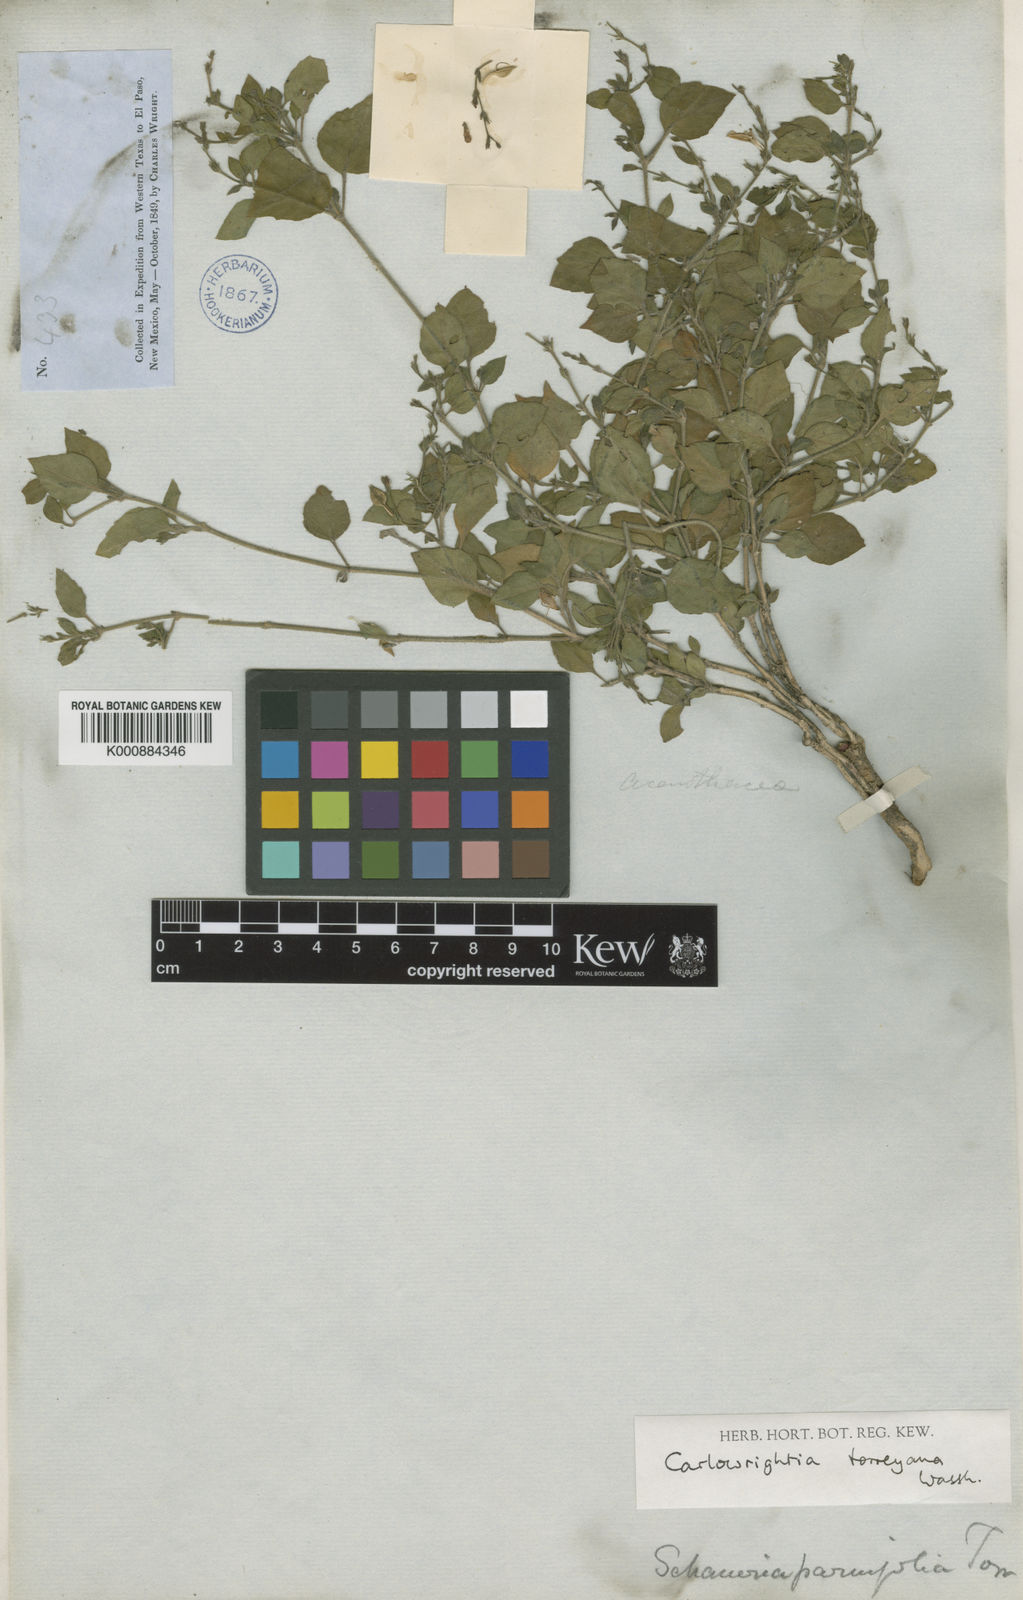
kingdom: Plantae
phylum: Tracheophyta
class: Magnoliopsida
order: Lamiales
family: Acanthaceae
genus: Carlowrightia
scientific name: Carlowrightia torreyana
